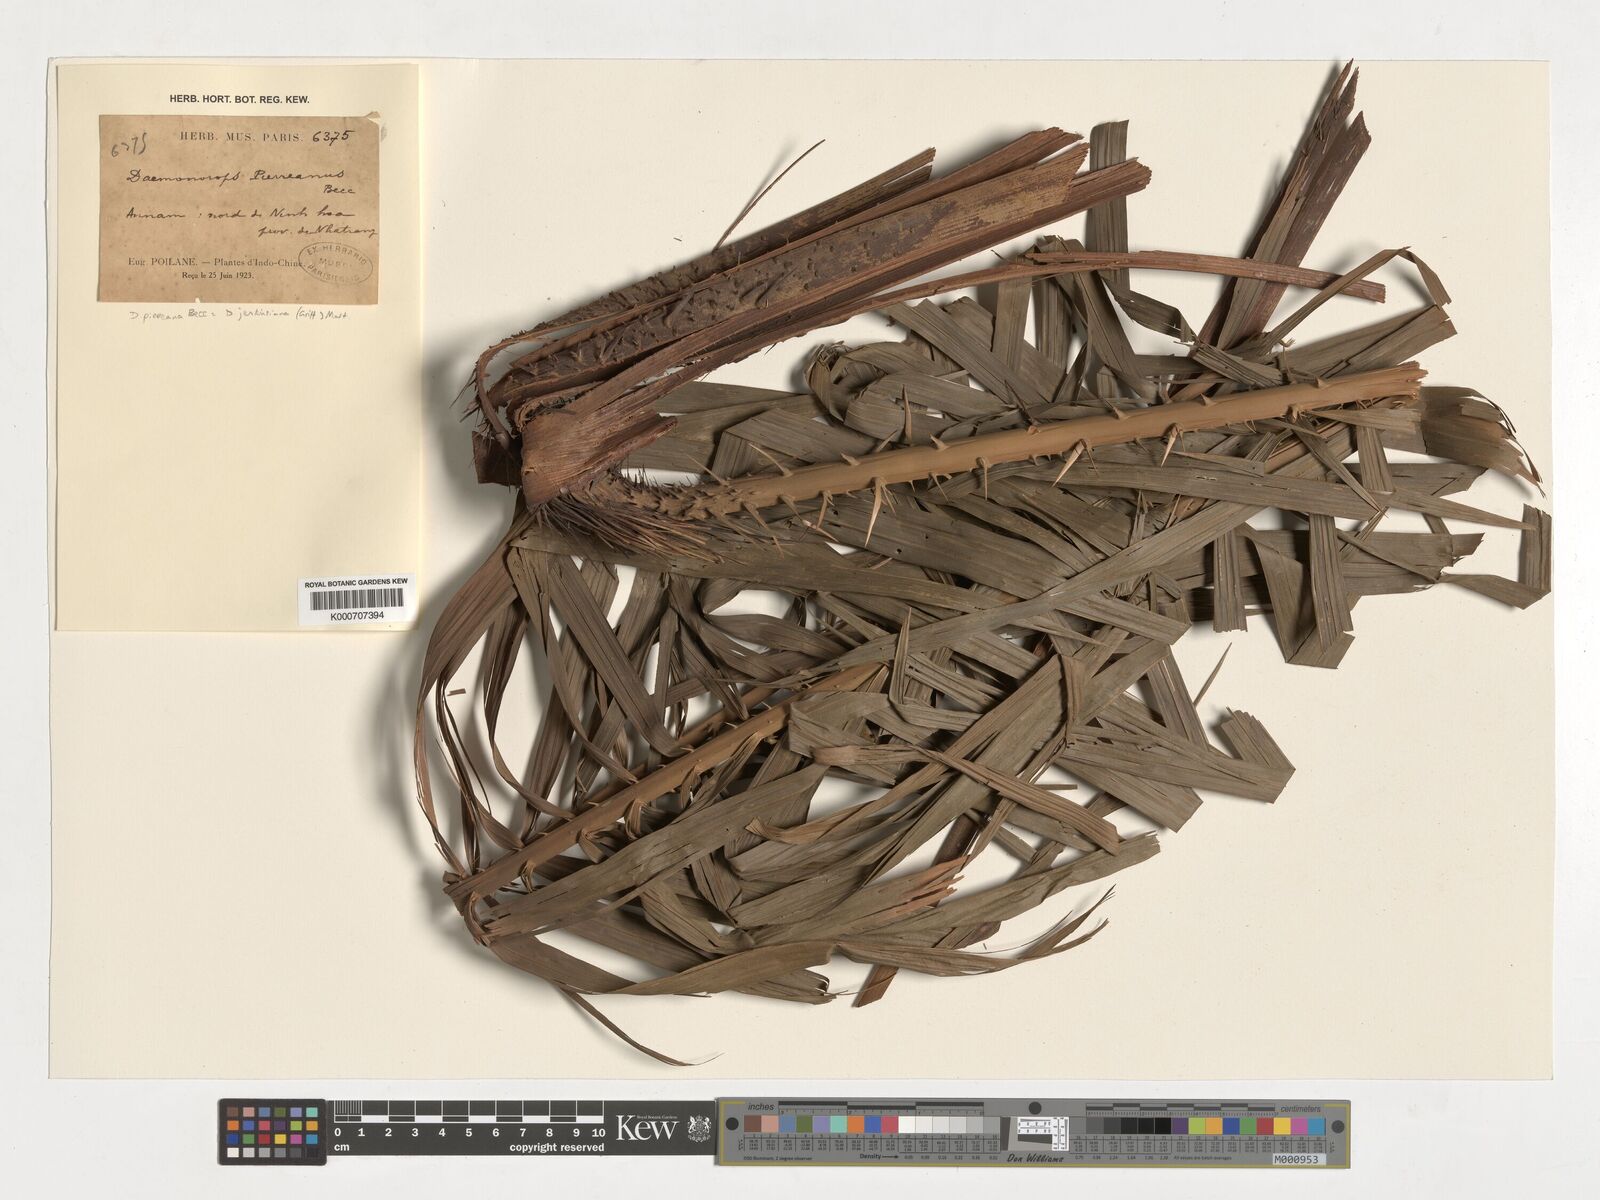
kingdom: Plantae
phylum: Tracheophyta
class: Liliopsida
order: Arecales
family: Arecaceae
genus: Calamus
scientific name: Calamus melanochaetes
